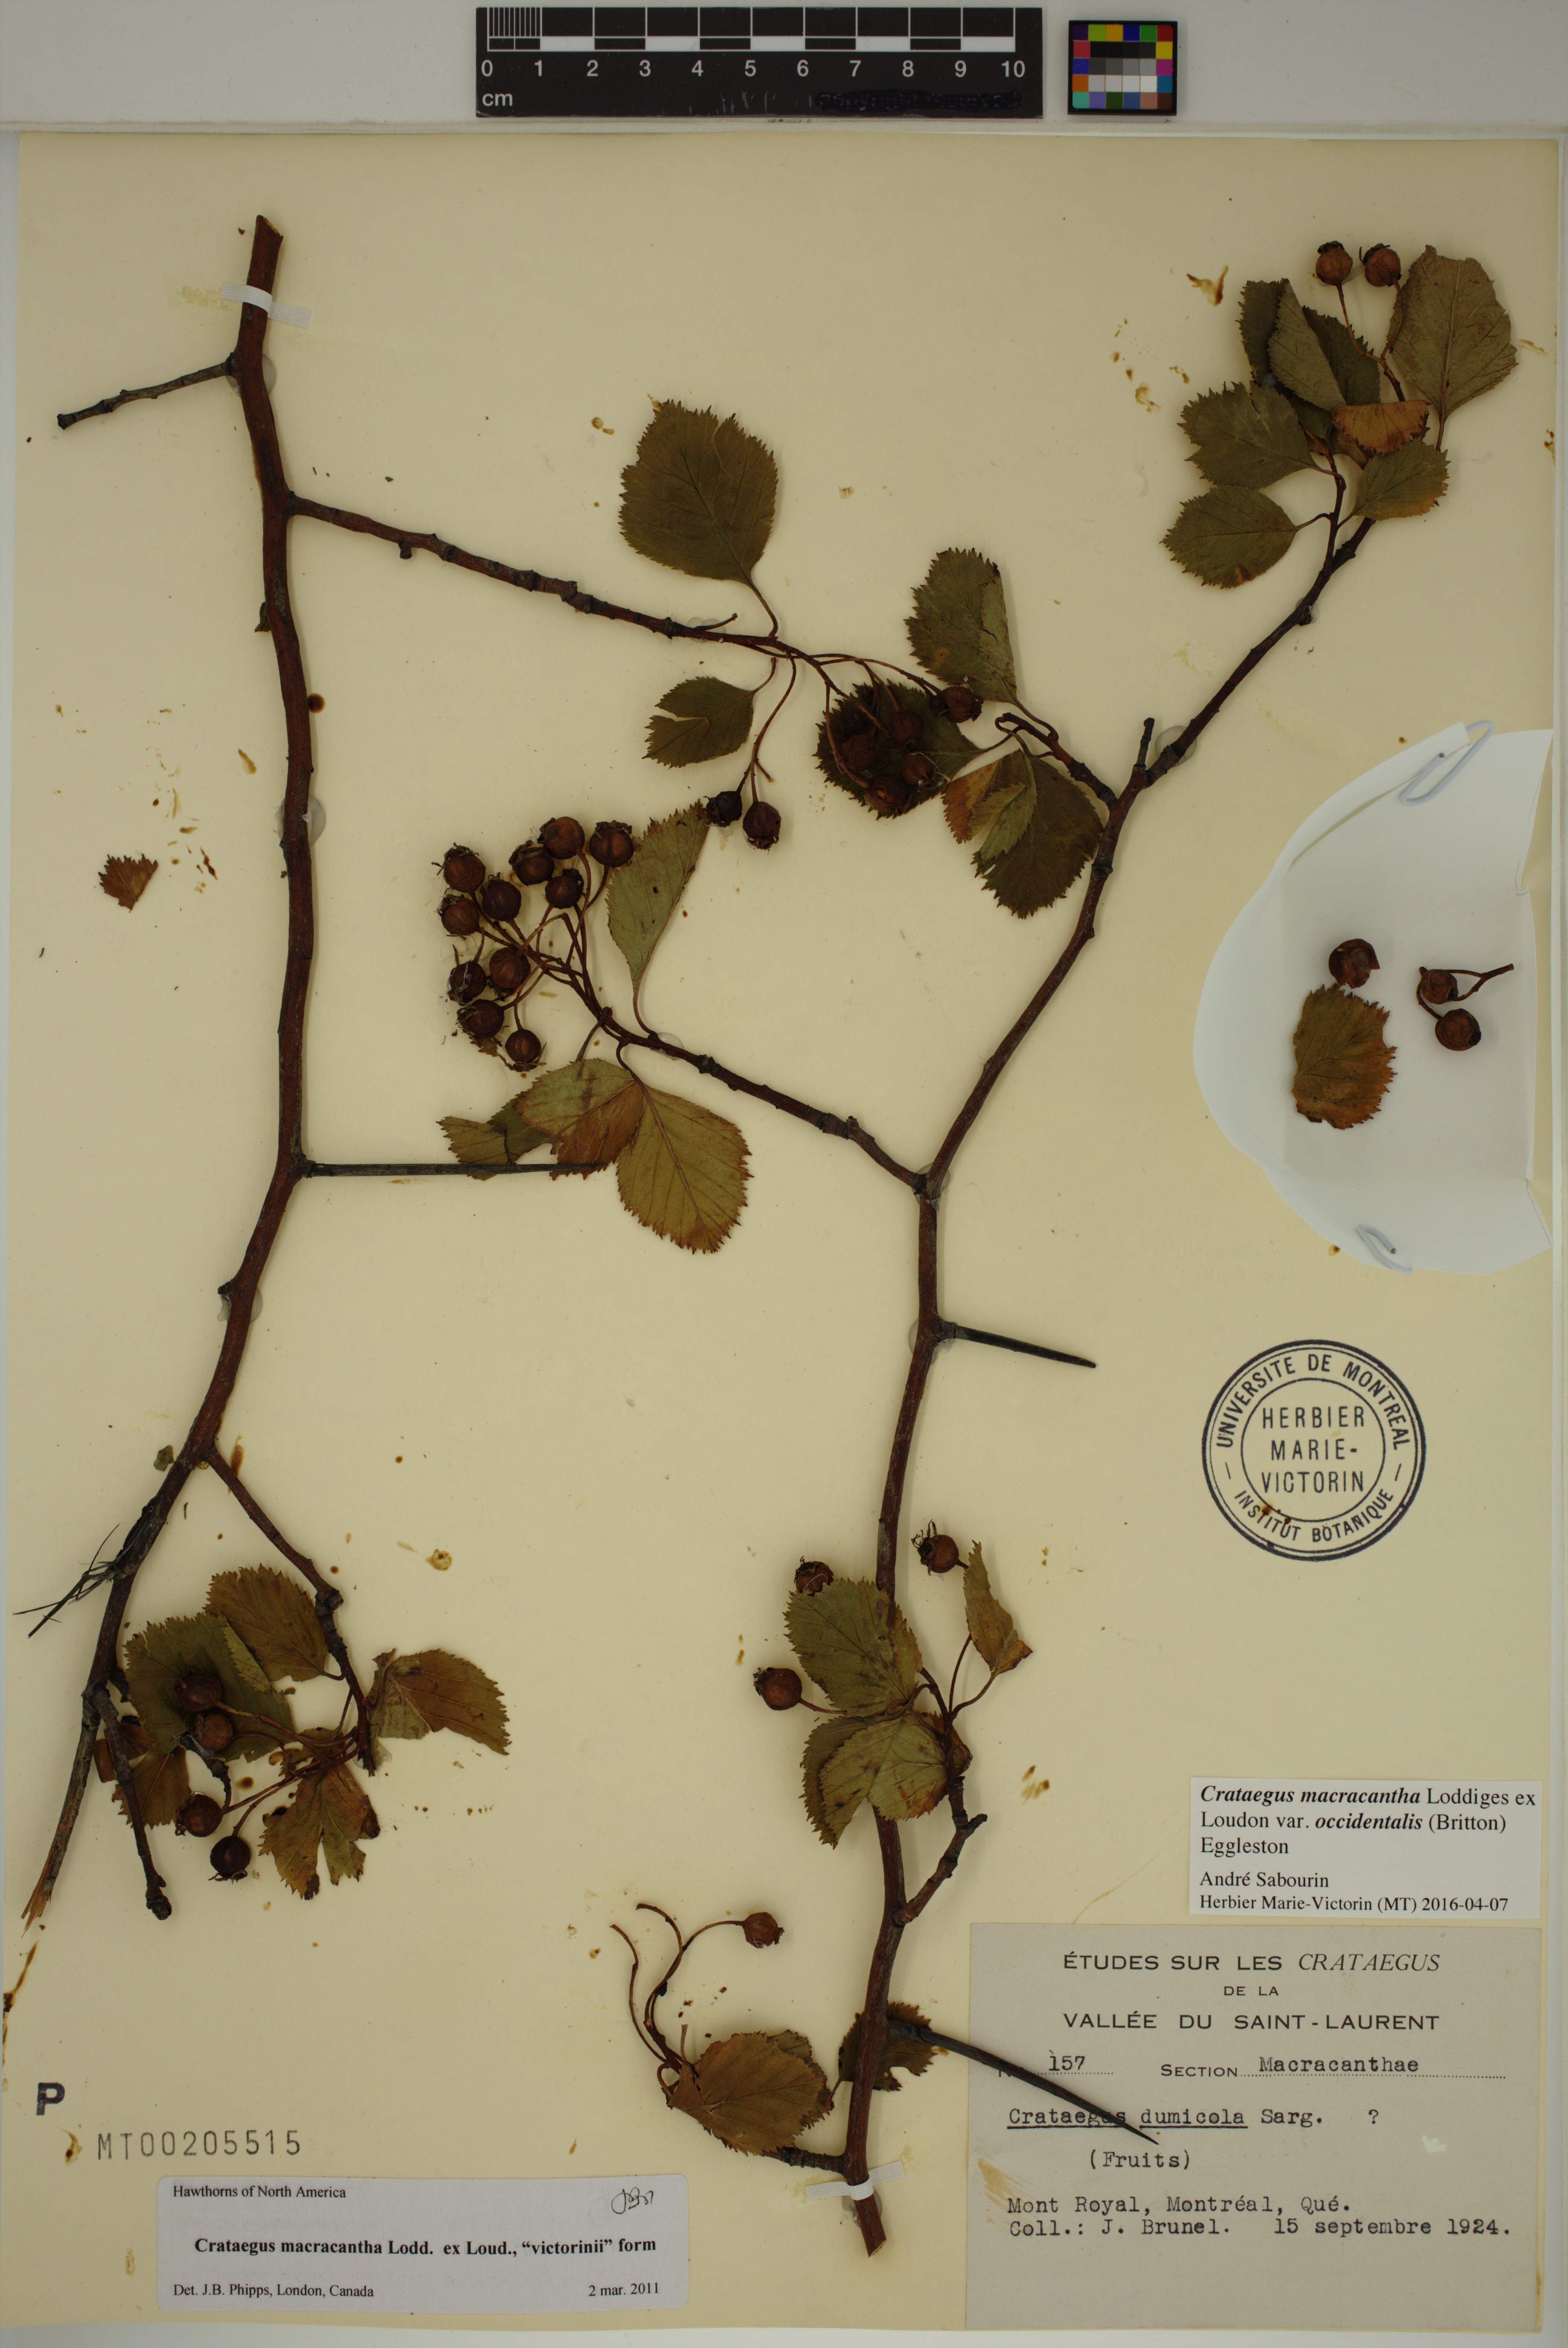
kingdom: Plantae
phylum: Tracheophyta
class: Magnoliopsida
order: Rosales
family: Rosaceae
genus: Crataegus
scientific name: Crataegus macracantha
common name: Large-thorn hawthorn
